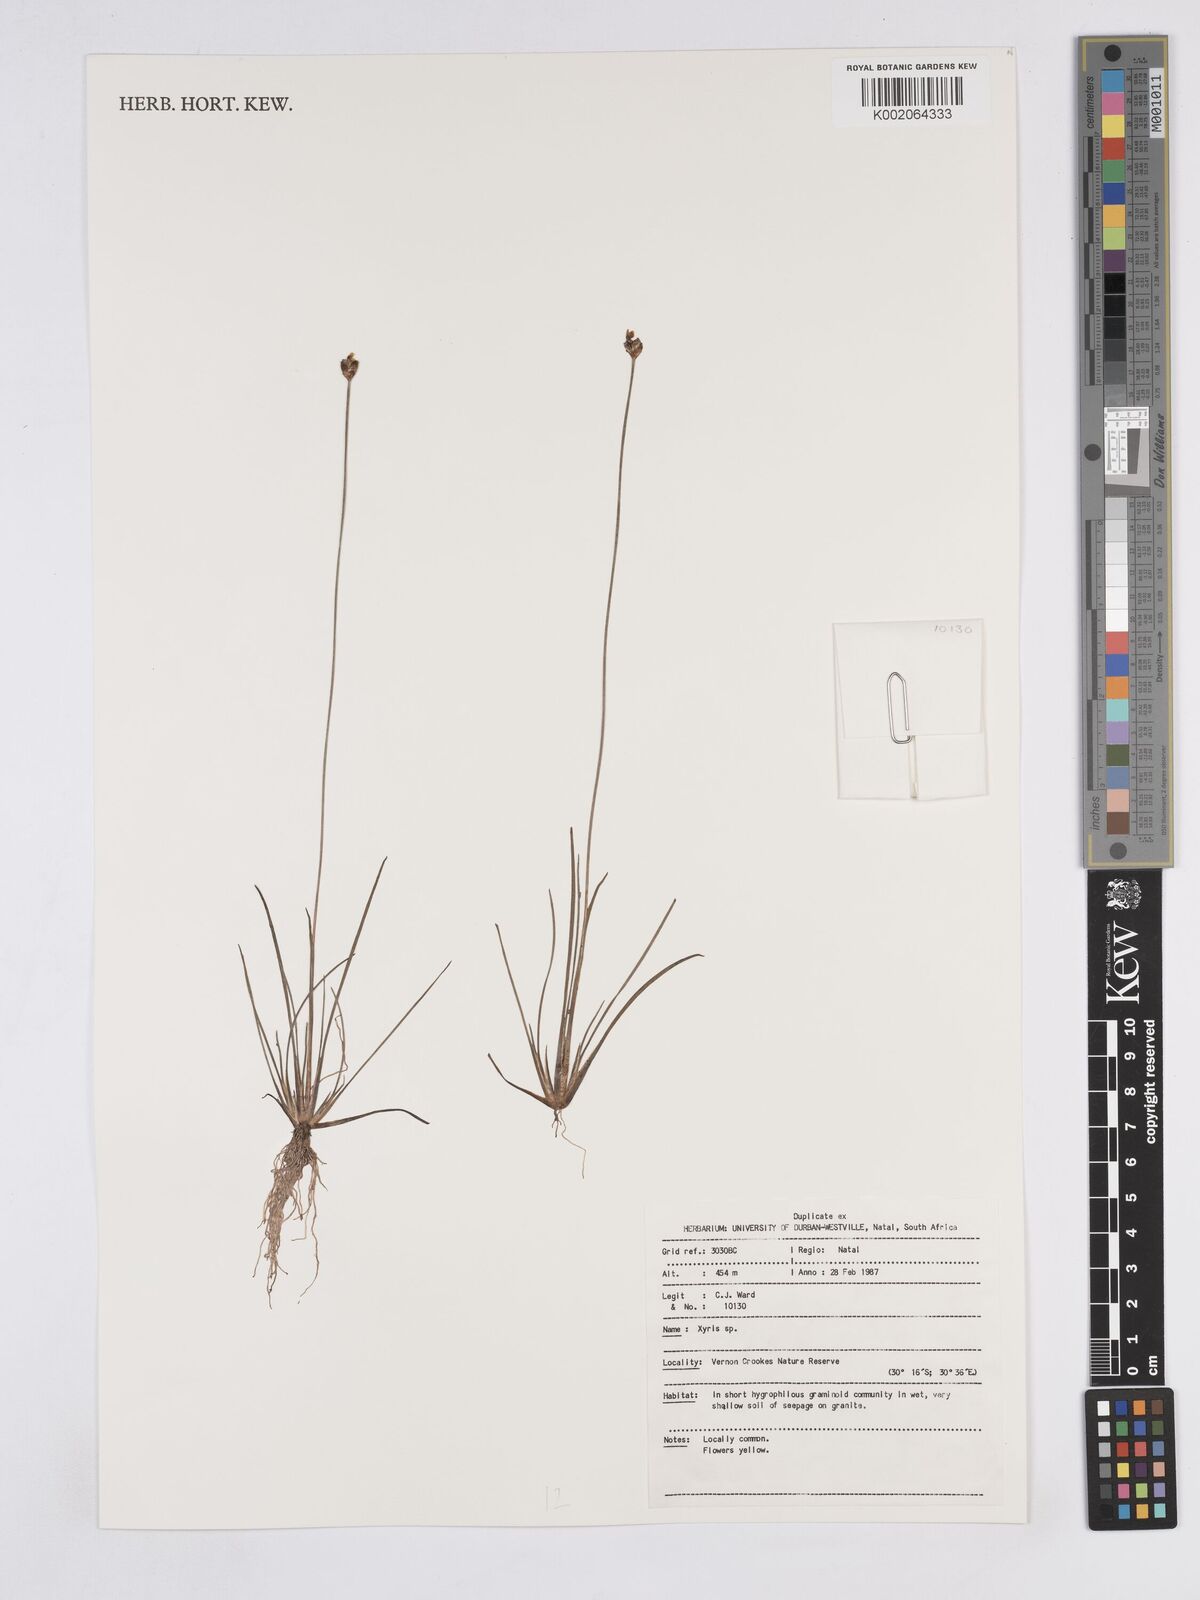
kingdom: Plantae
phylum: Tracheophyta
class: Liliopsida
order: Poales
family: Xyridaceae
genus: Xyris
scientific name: Xyris
